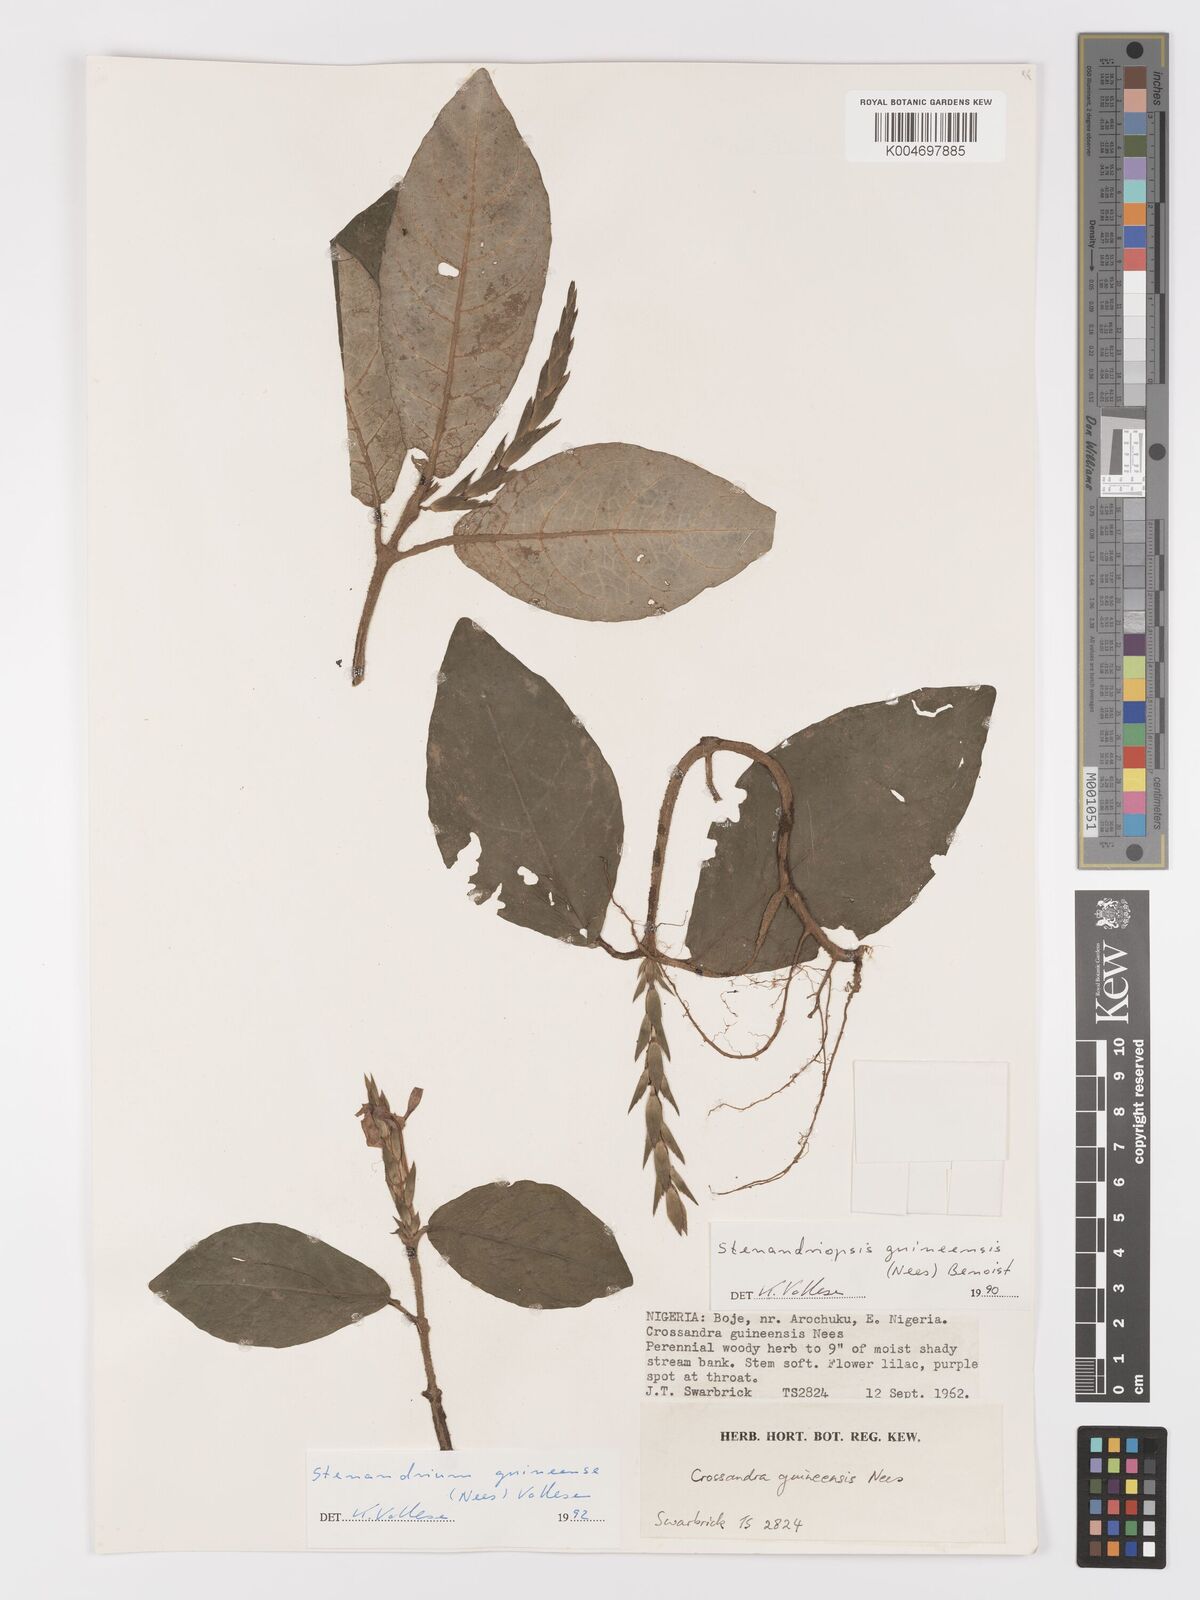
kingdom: Plantae
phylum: Tracheophyta
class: Magnoliopsida
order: Lamiales
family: Acanthaceae
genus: Stenandriopsis
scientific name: Stenandriopsis guineensis
